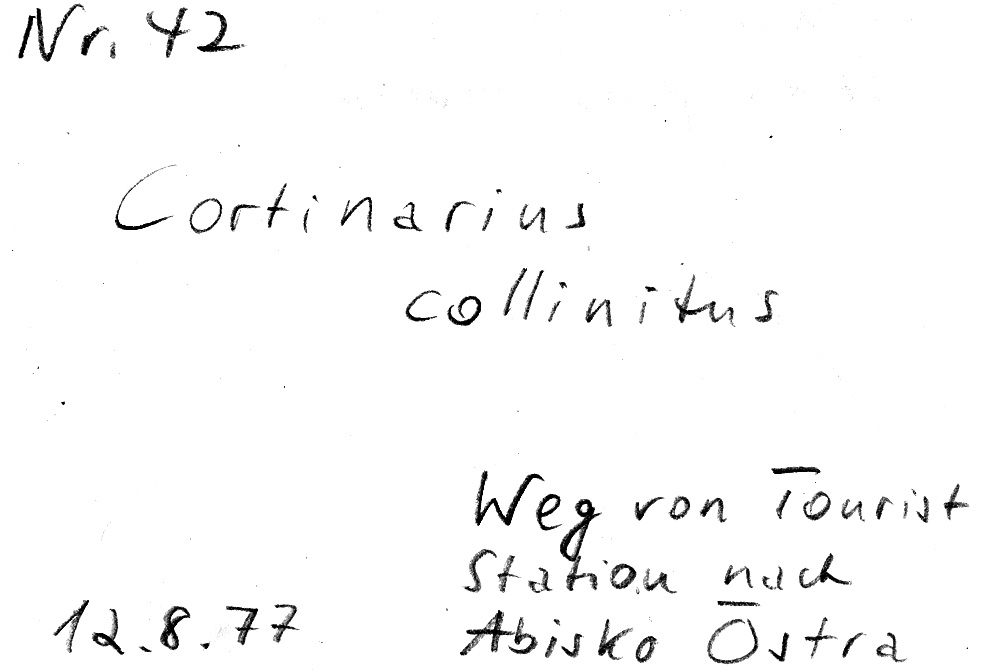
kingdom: Fungi
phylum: Basidiomycota
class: Agaricomycetes
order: Agaricales
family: Cortinariaceae
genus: Cortinarius
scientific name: Cortinarius collinitus
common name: Blue-girdled webcap
